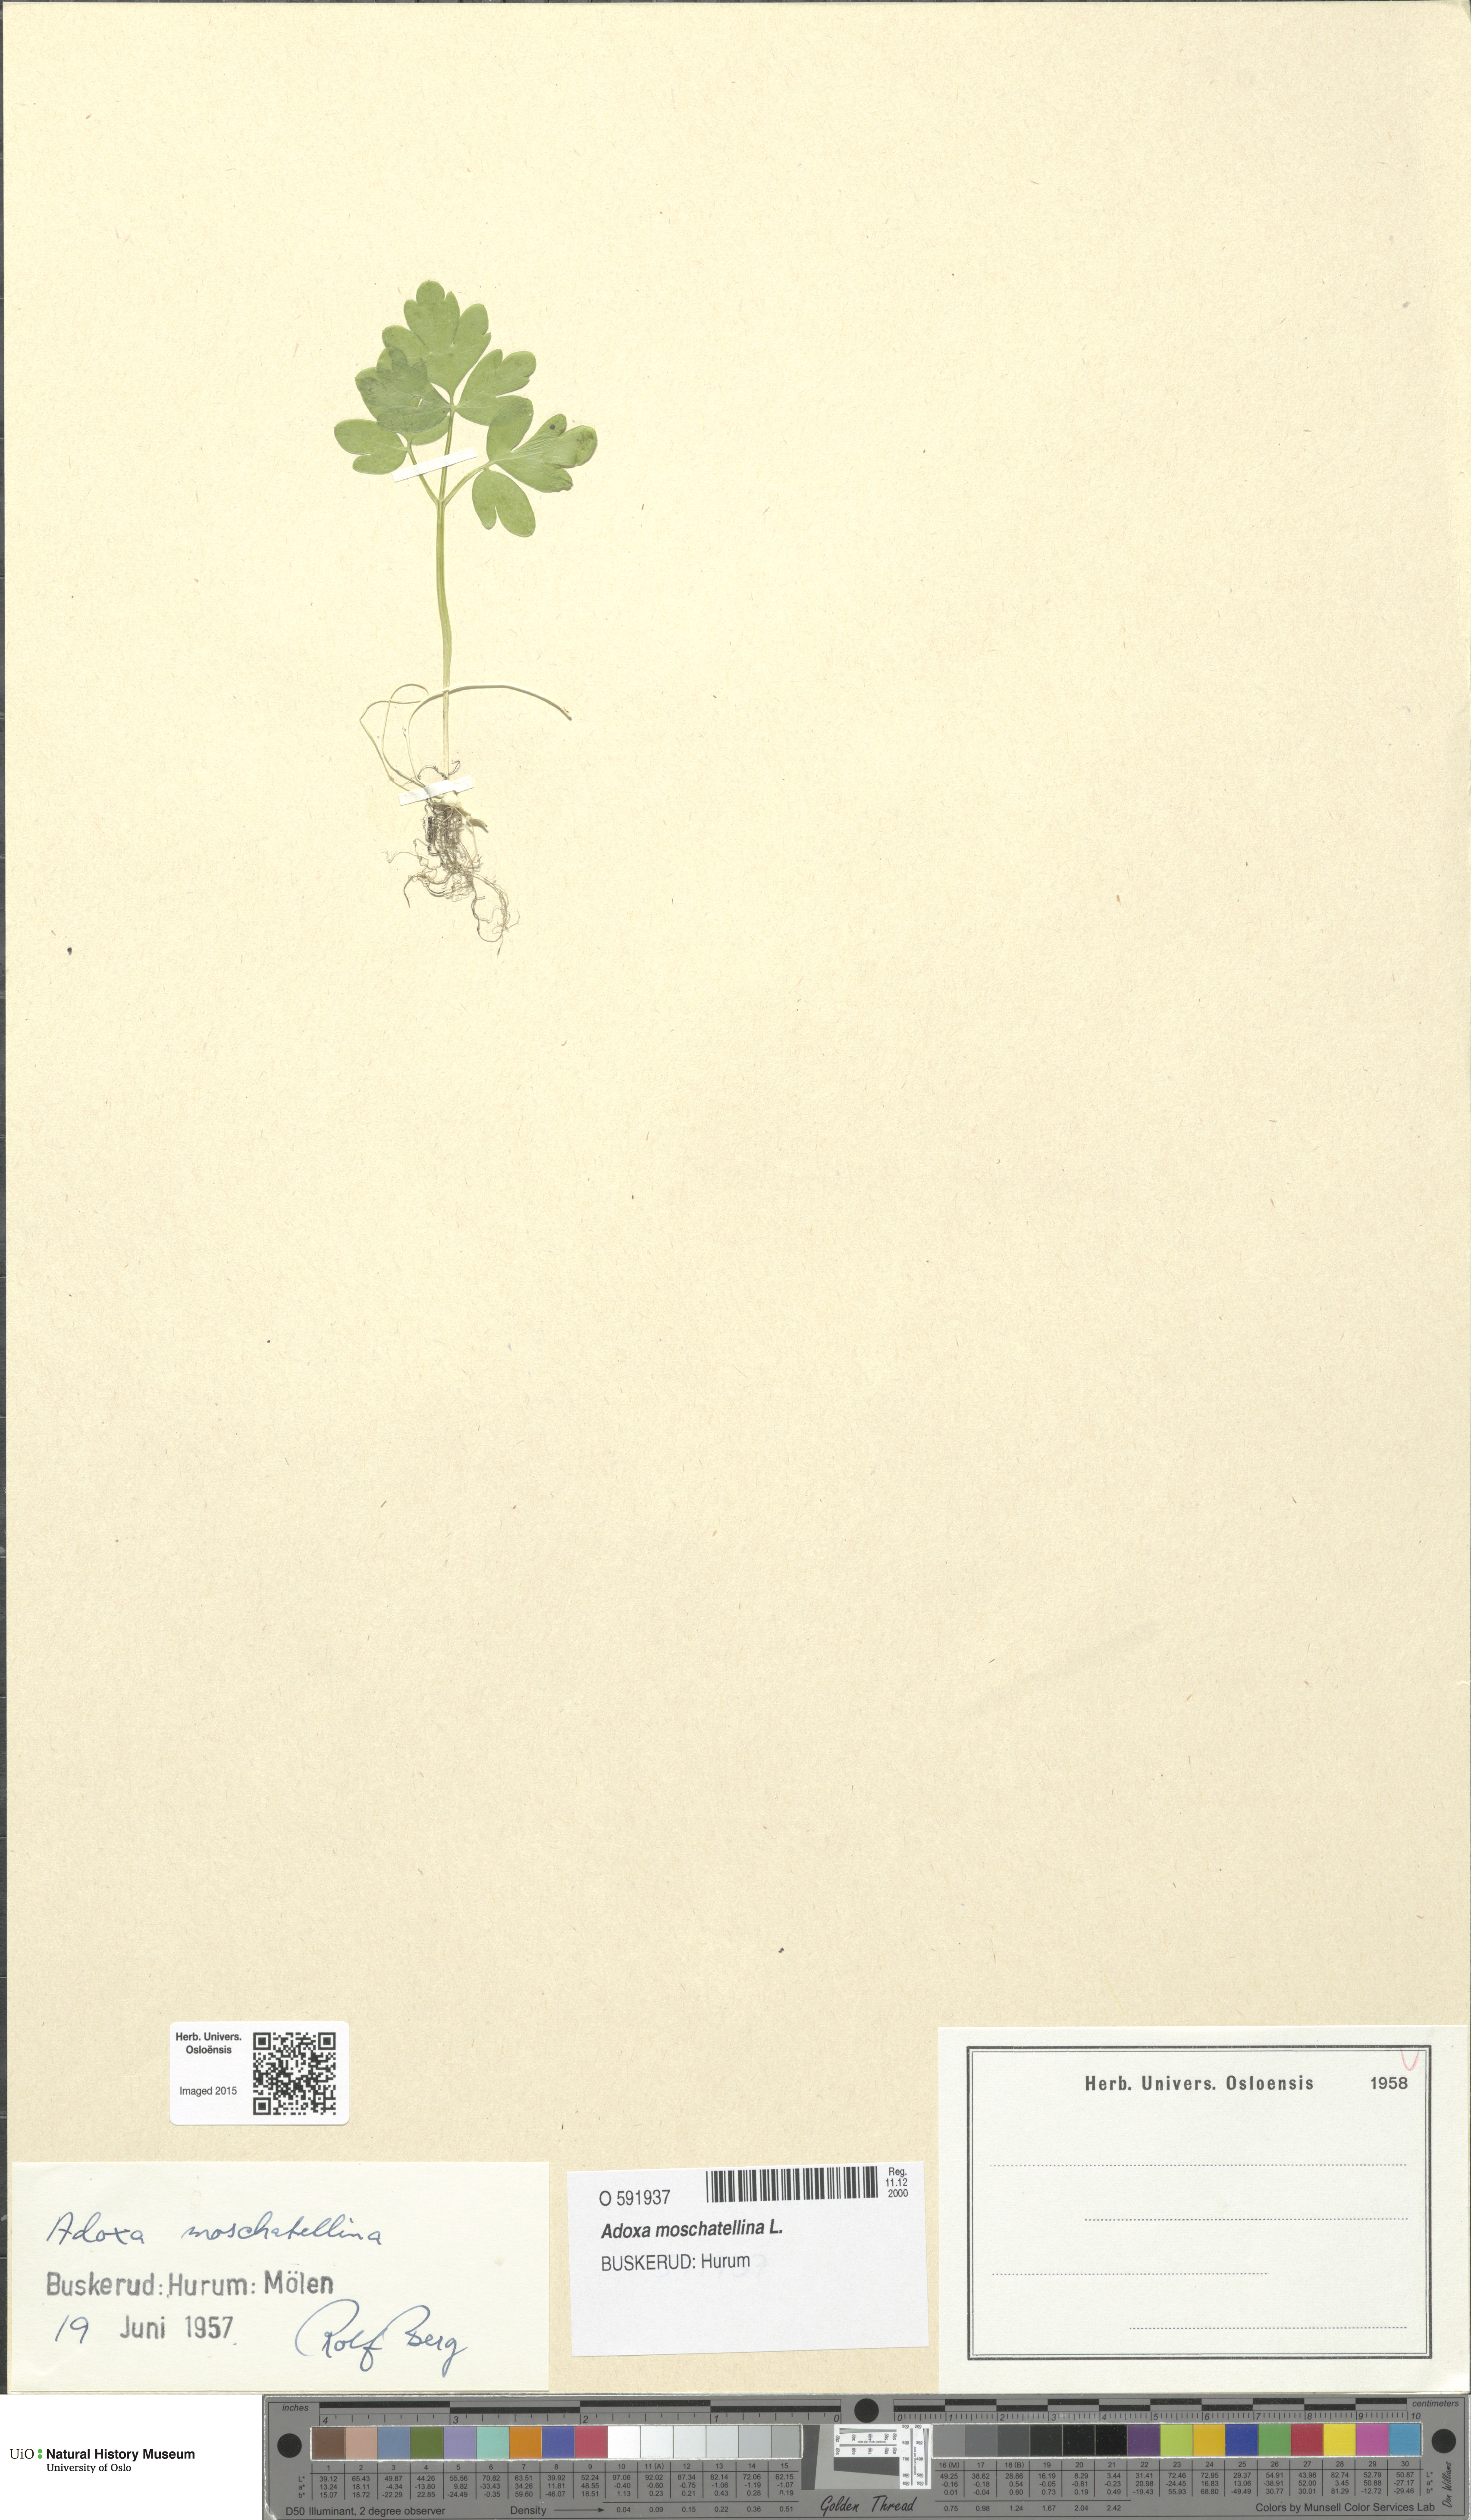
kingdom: Plantae
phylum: Tracheophyta
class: Magnoliopsida
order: Dipsacales
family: Viburnaceae
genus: Adoxa
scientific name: Adoxa moschatellina
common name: Moschatel
